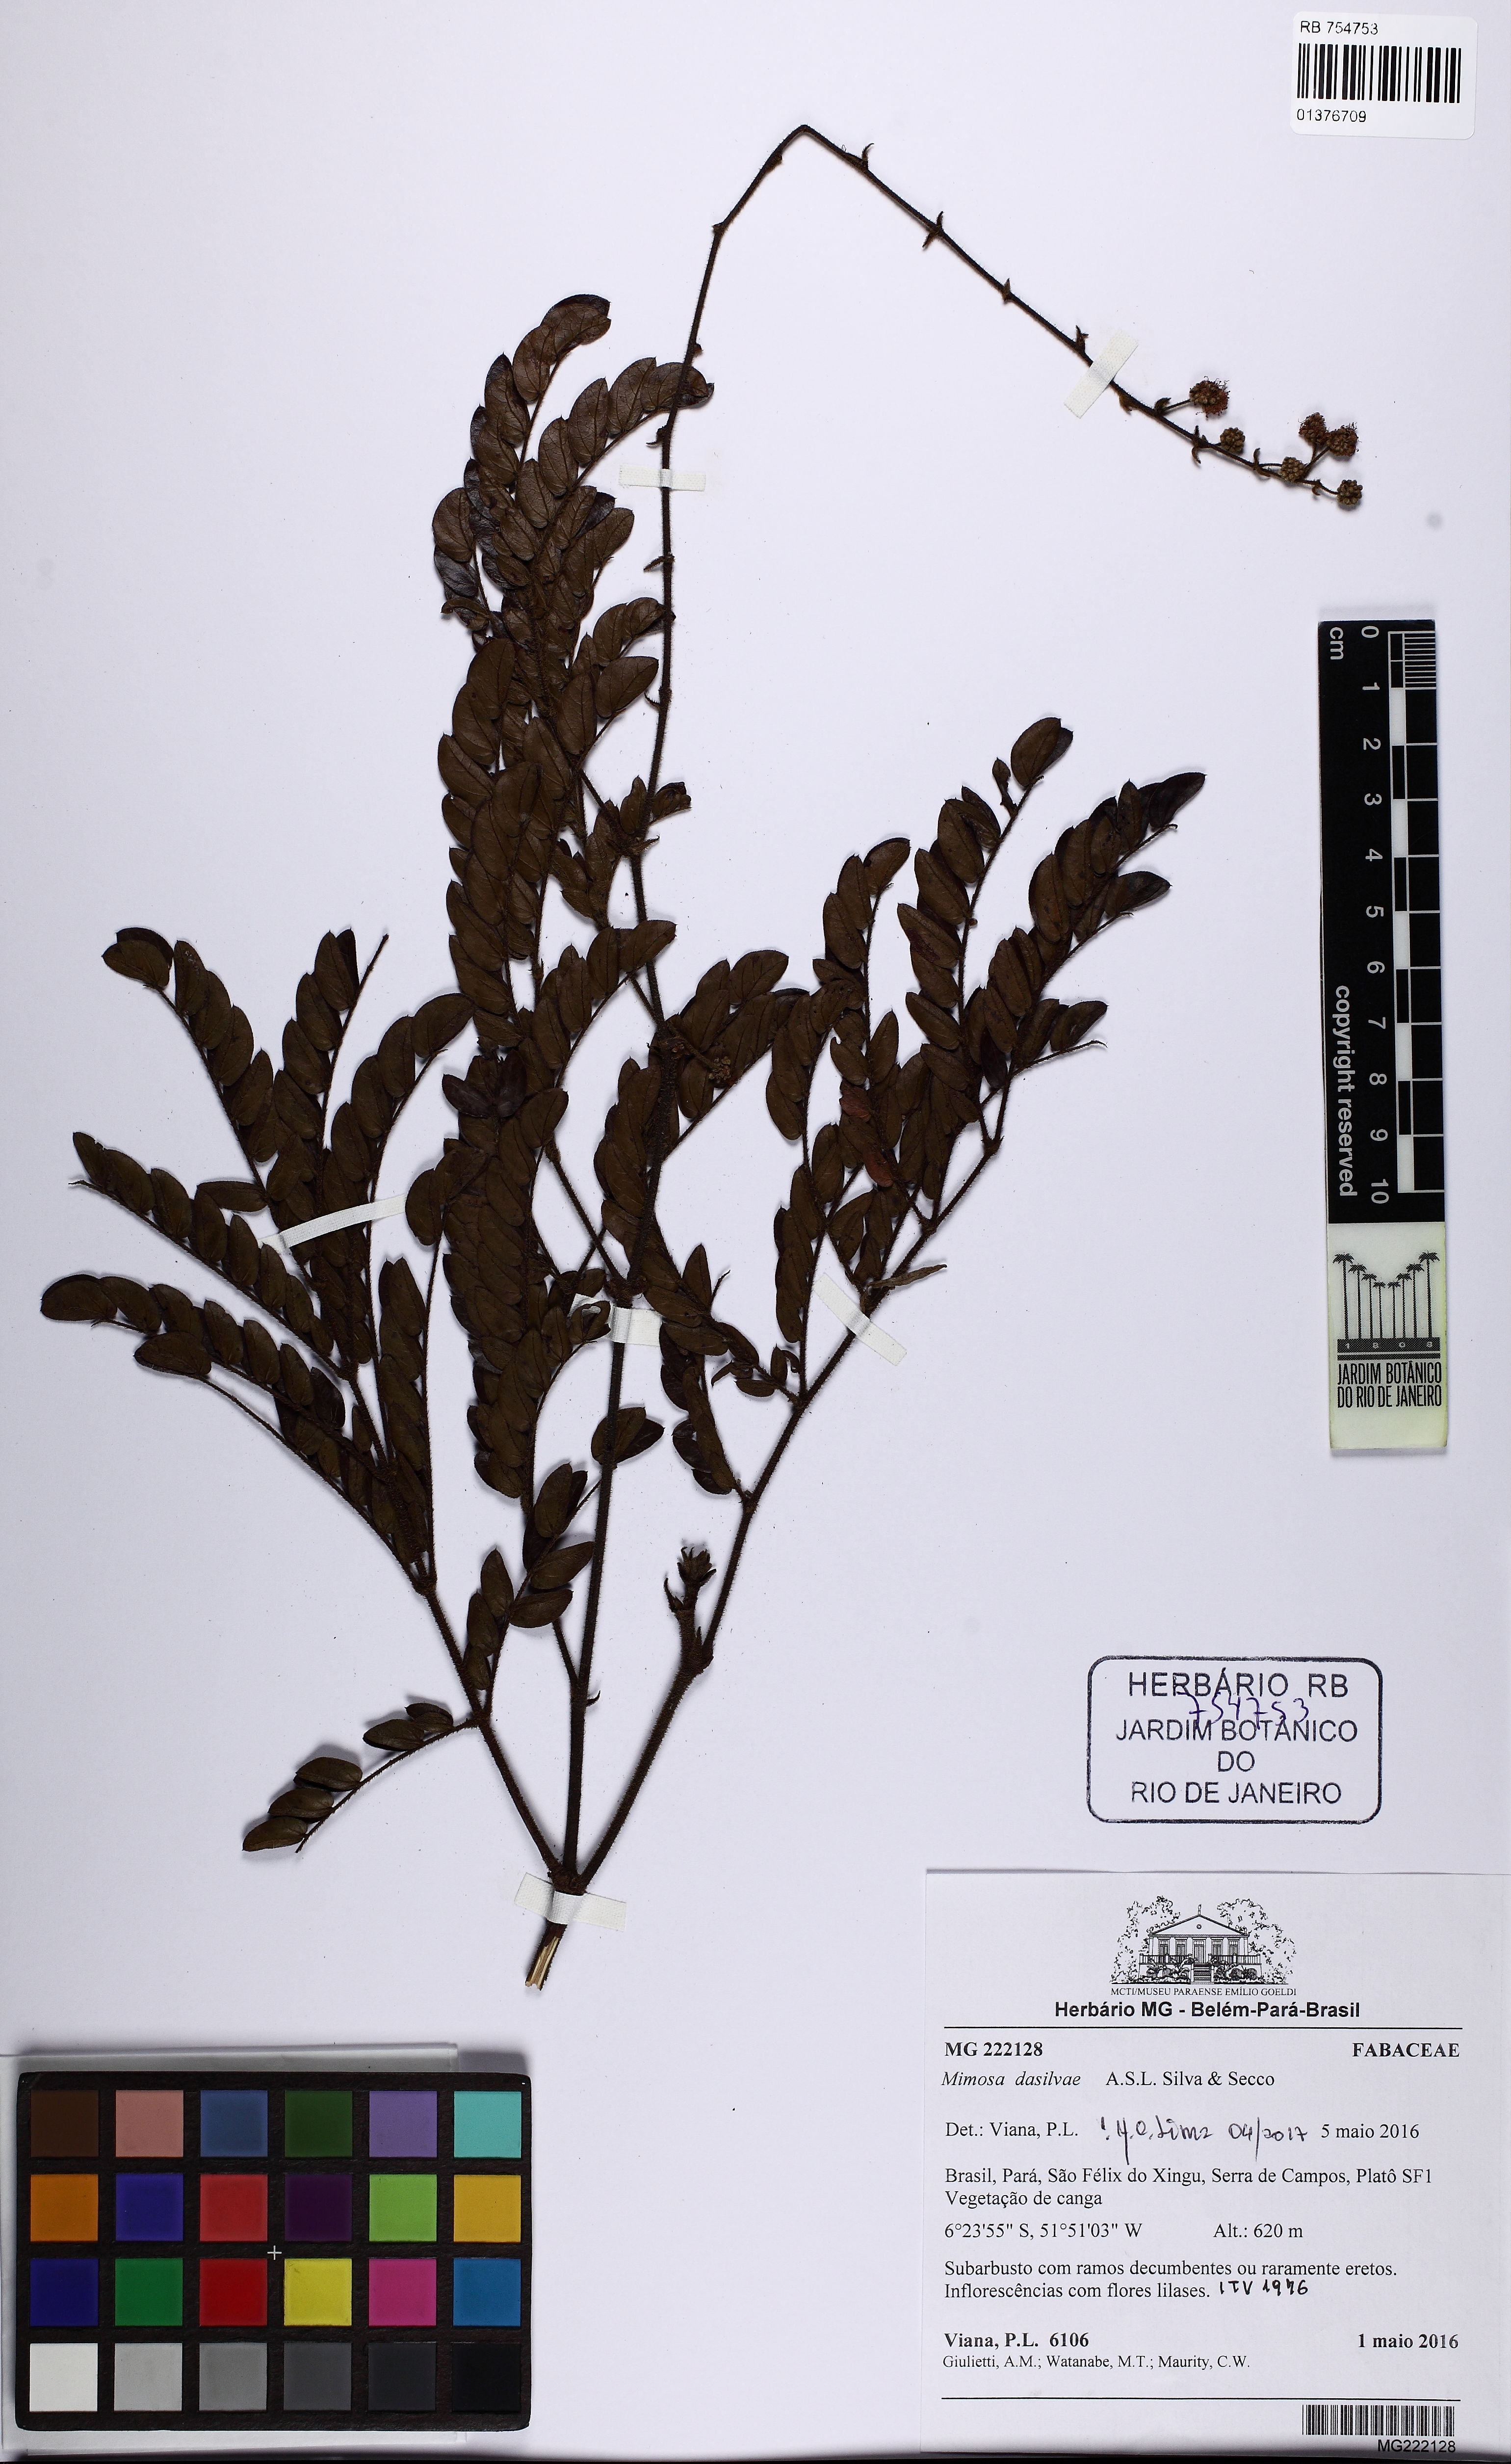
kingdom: Plantae
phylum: Tracheophyta
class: Magnoliopsida
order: Fabales
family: Fabaceae
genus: Mimosa
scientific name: Mimosa dasilvae
